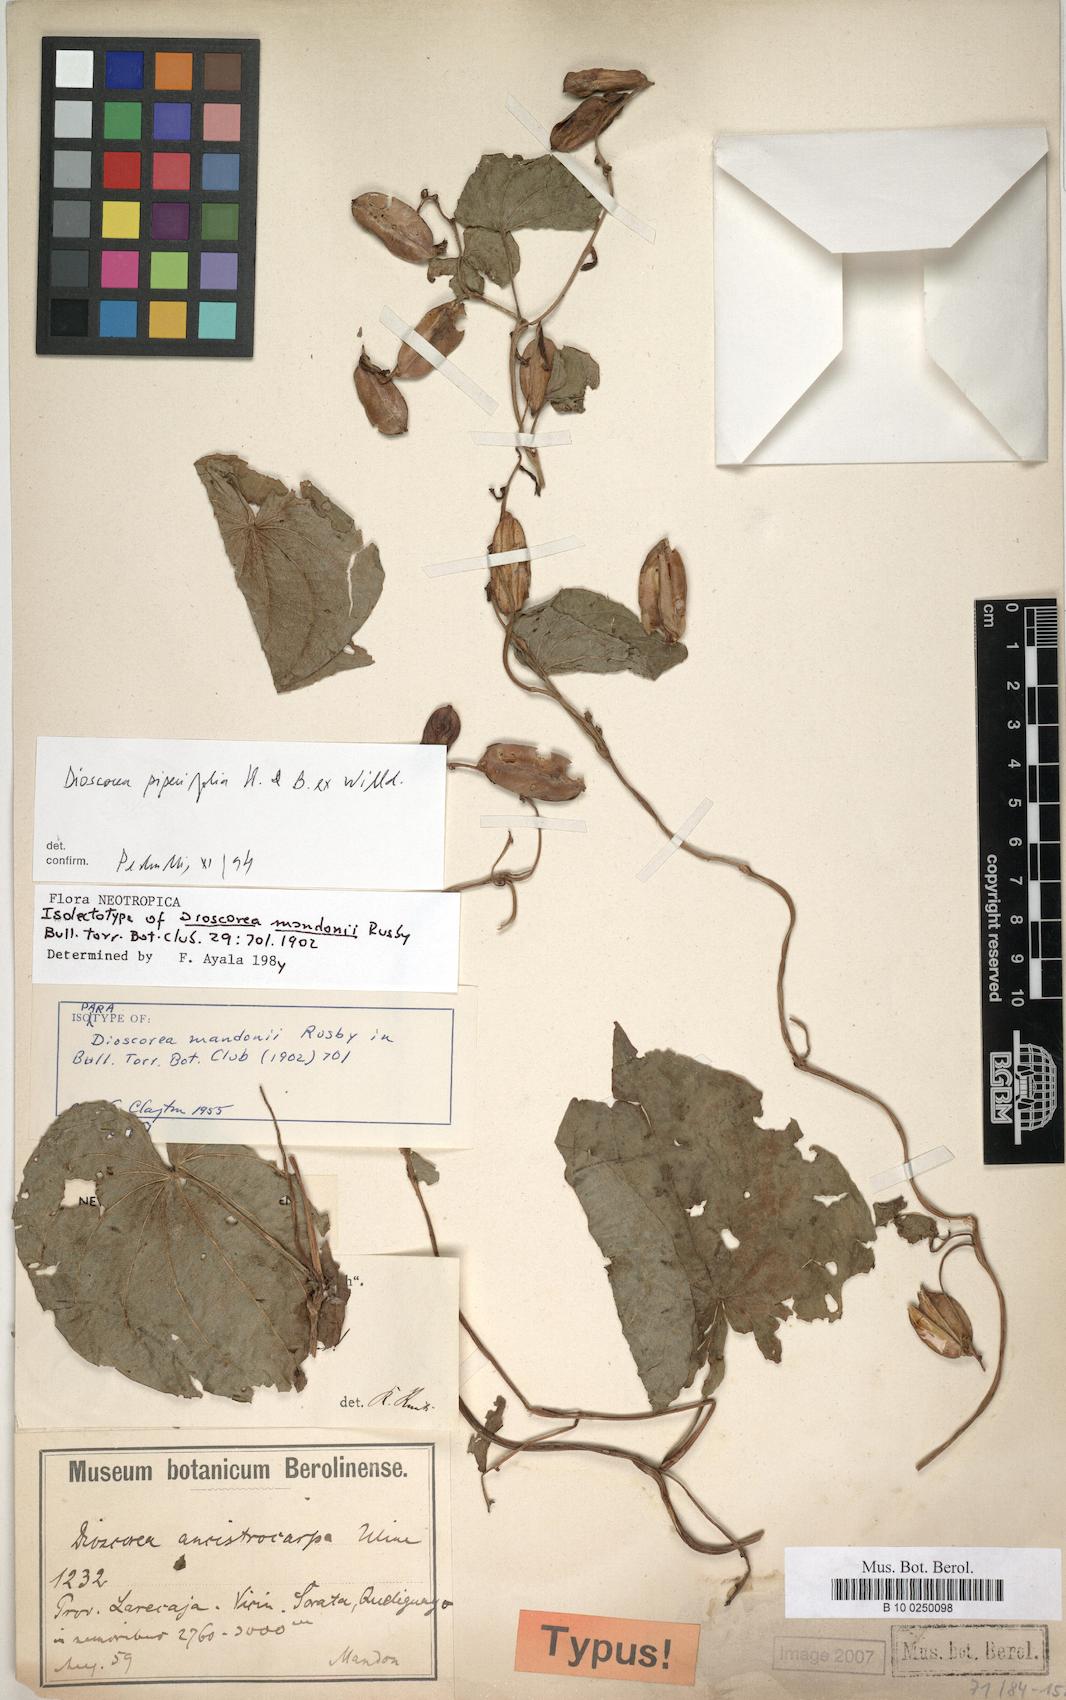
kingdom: Plantae
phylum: Tracheophyta
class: Liliopsida
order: Dioscoreales
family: Dioscoreaceae
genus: Dioscorea
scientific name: Dioscorea piperifolia
